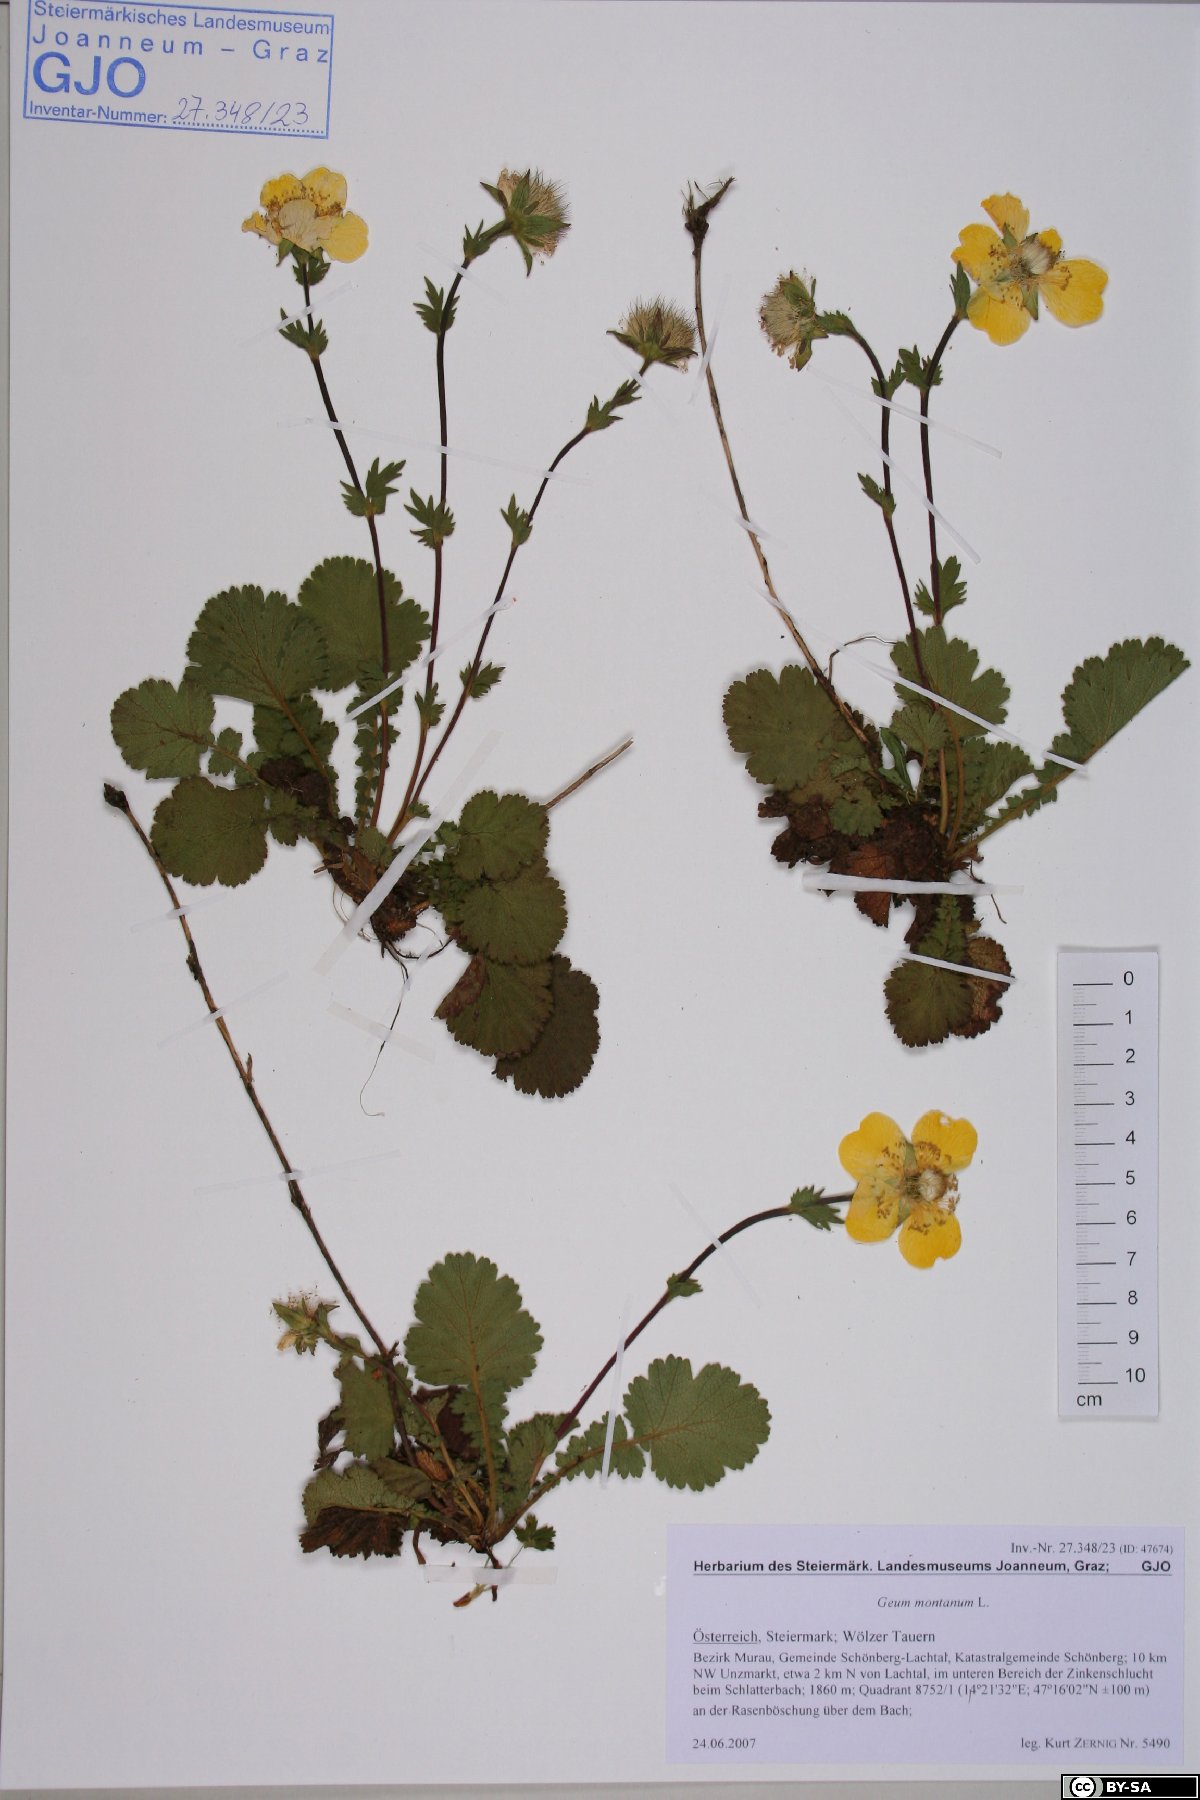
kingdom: Plantae
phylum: Tracheophyta
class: Magnoliopsida
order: Rosales
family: Rosaceae
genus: Geum
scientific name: Geum montanum
